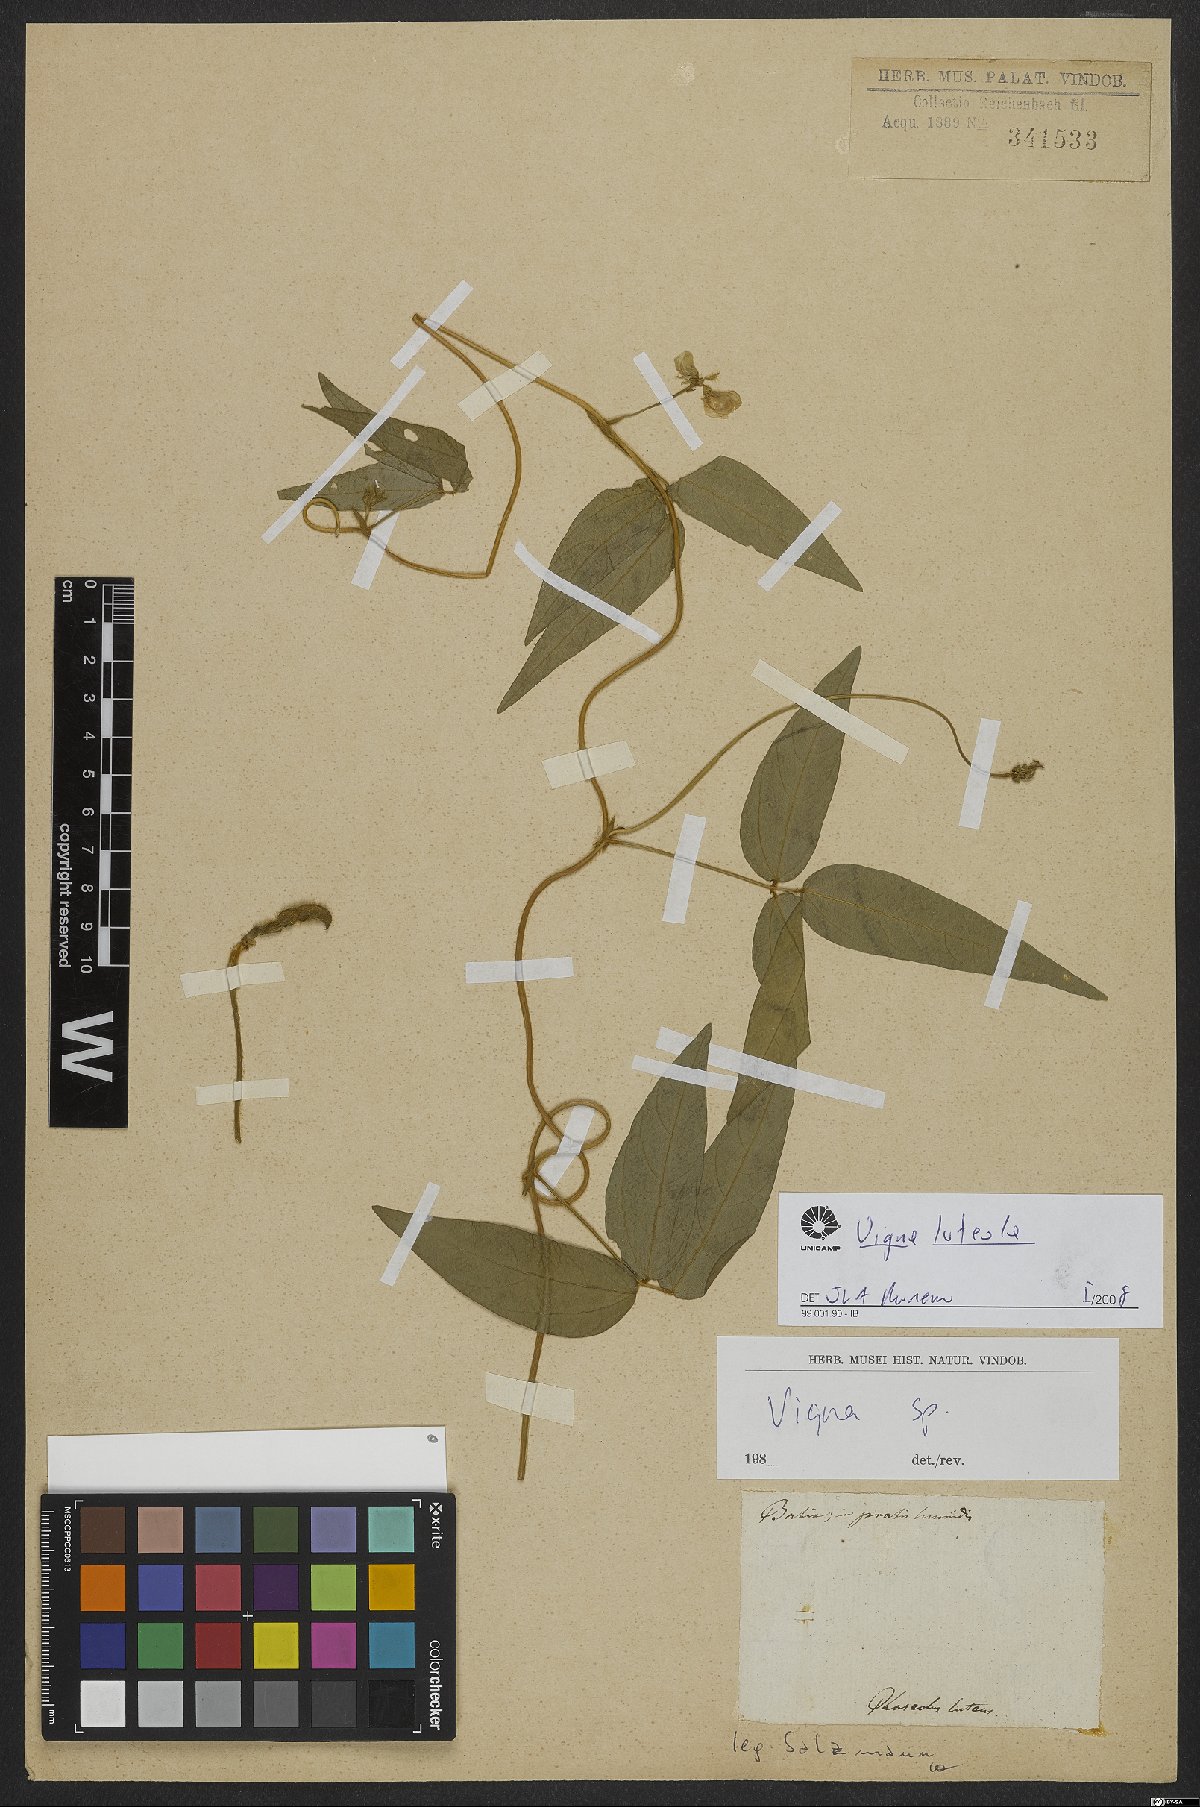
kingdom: Plantae
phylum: Tracheophyta
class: Magnoliopsida
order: Fabales
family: Fabaceae
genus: Vigna
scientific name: Vigna luteola
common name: Hairypod cowpea
